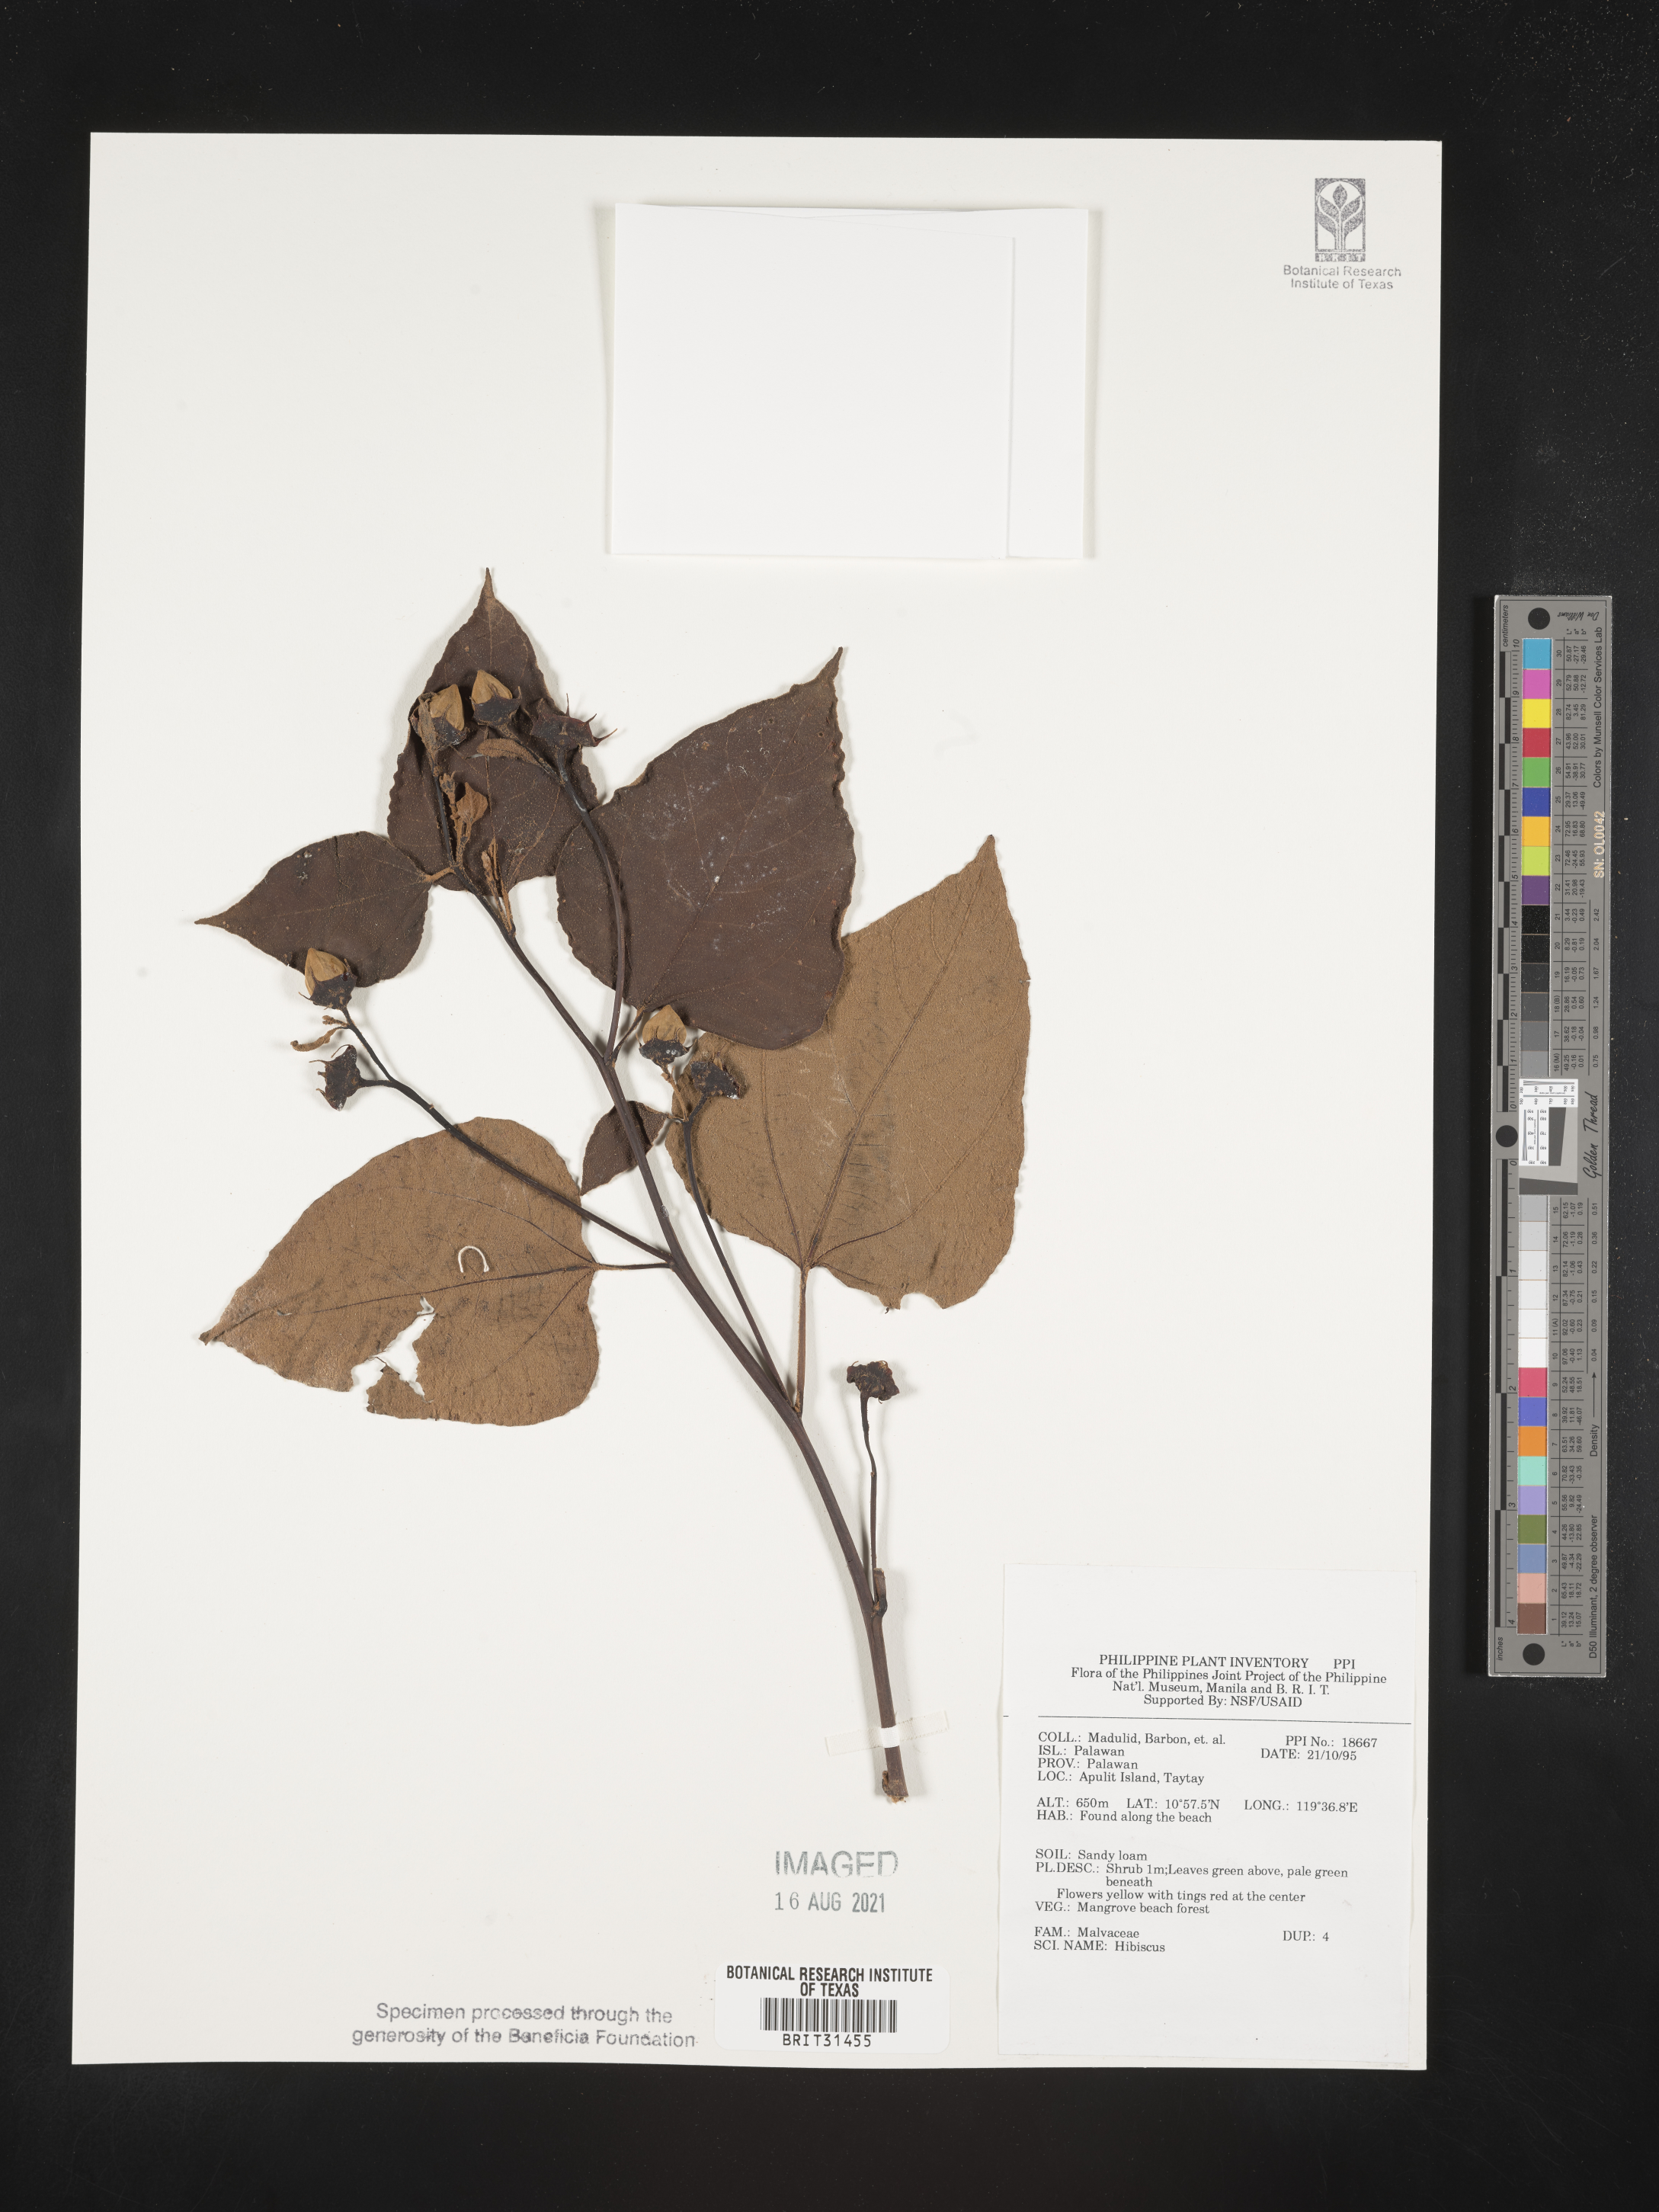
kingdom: Plantae
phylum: Tracheophyta
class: Magnoliopsida
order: Malvales
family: Malvaceae
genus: Hibiscus
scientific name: Hibiscus
